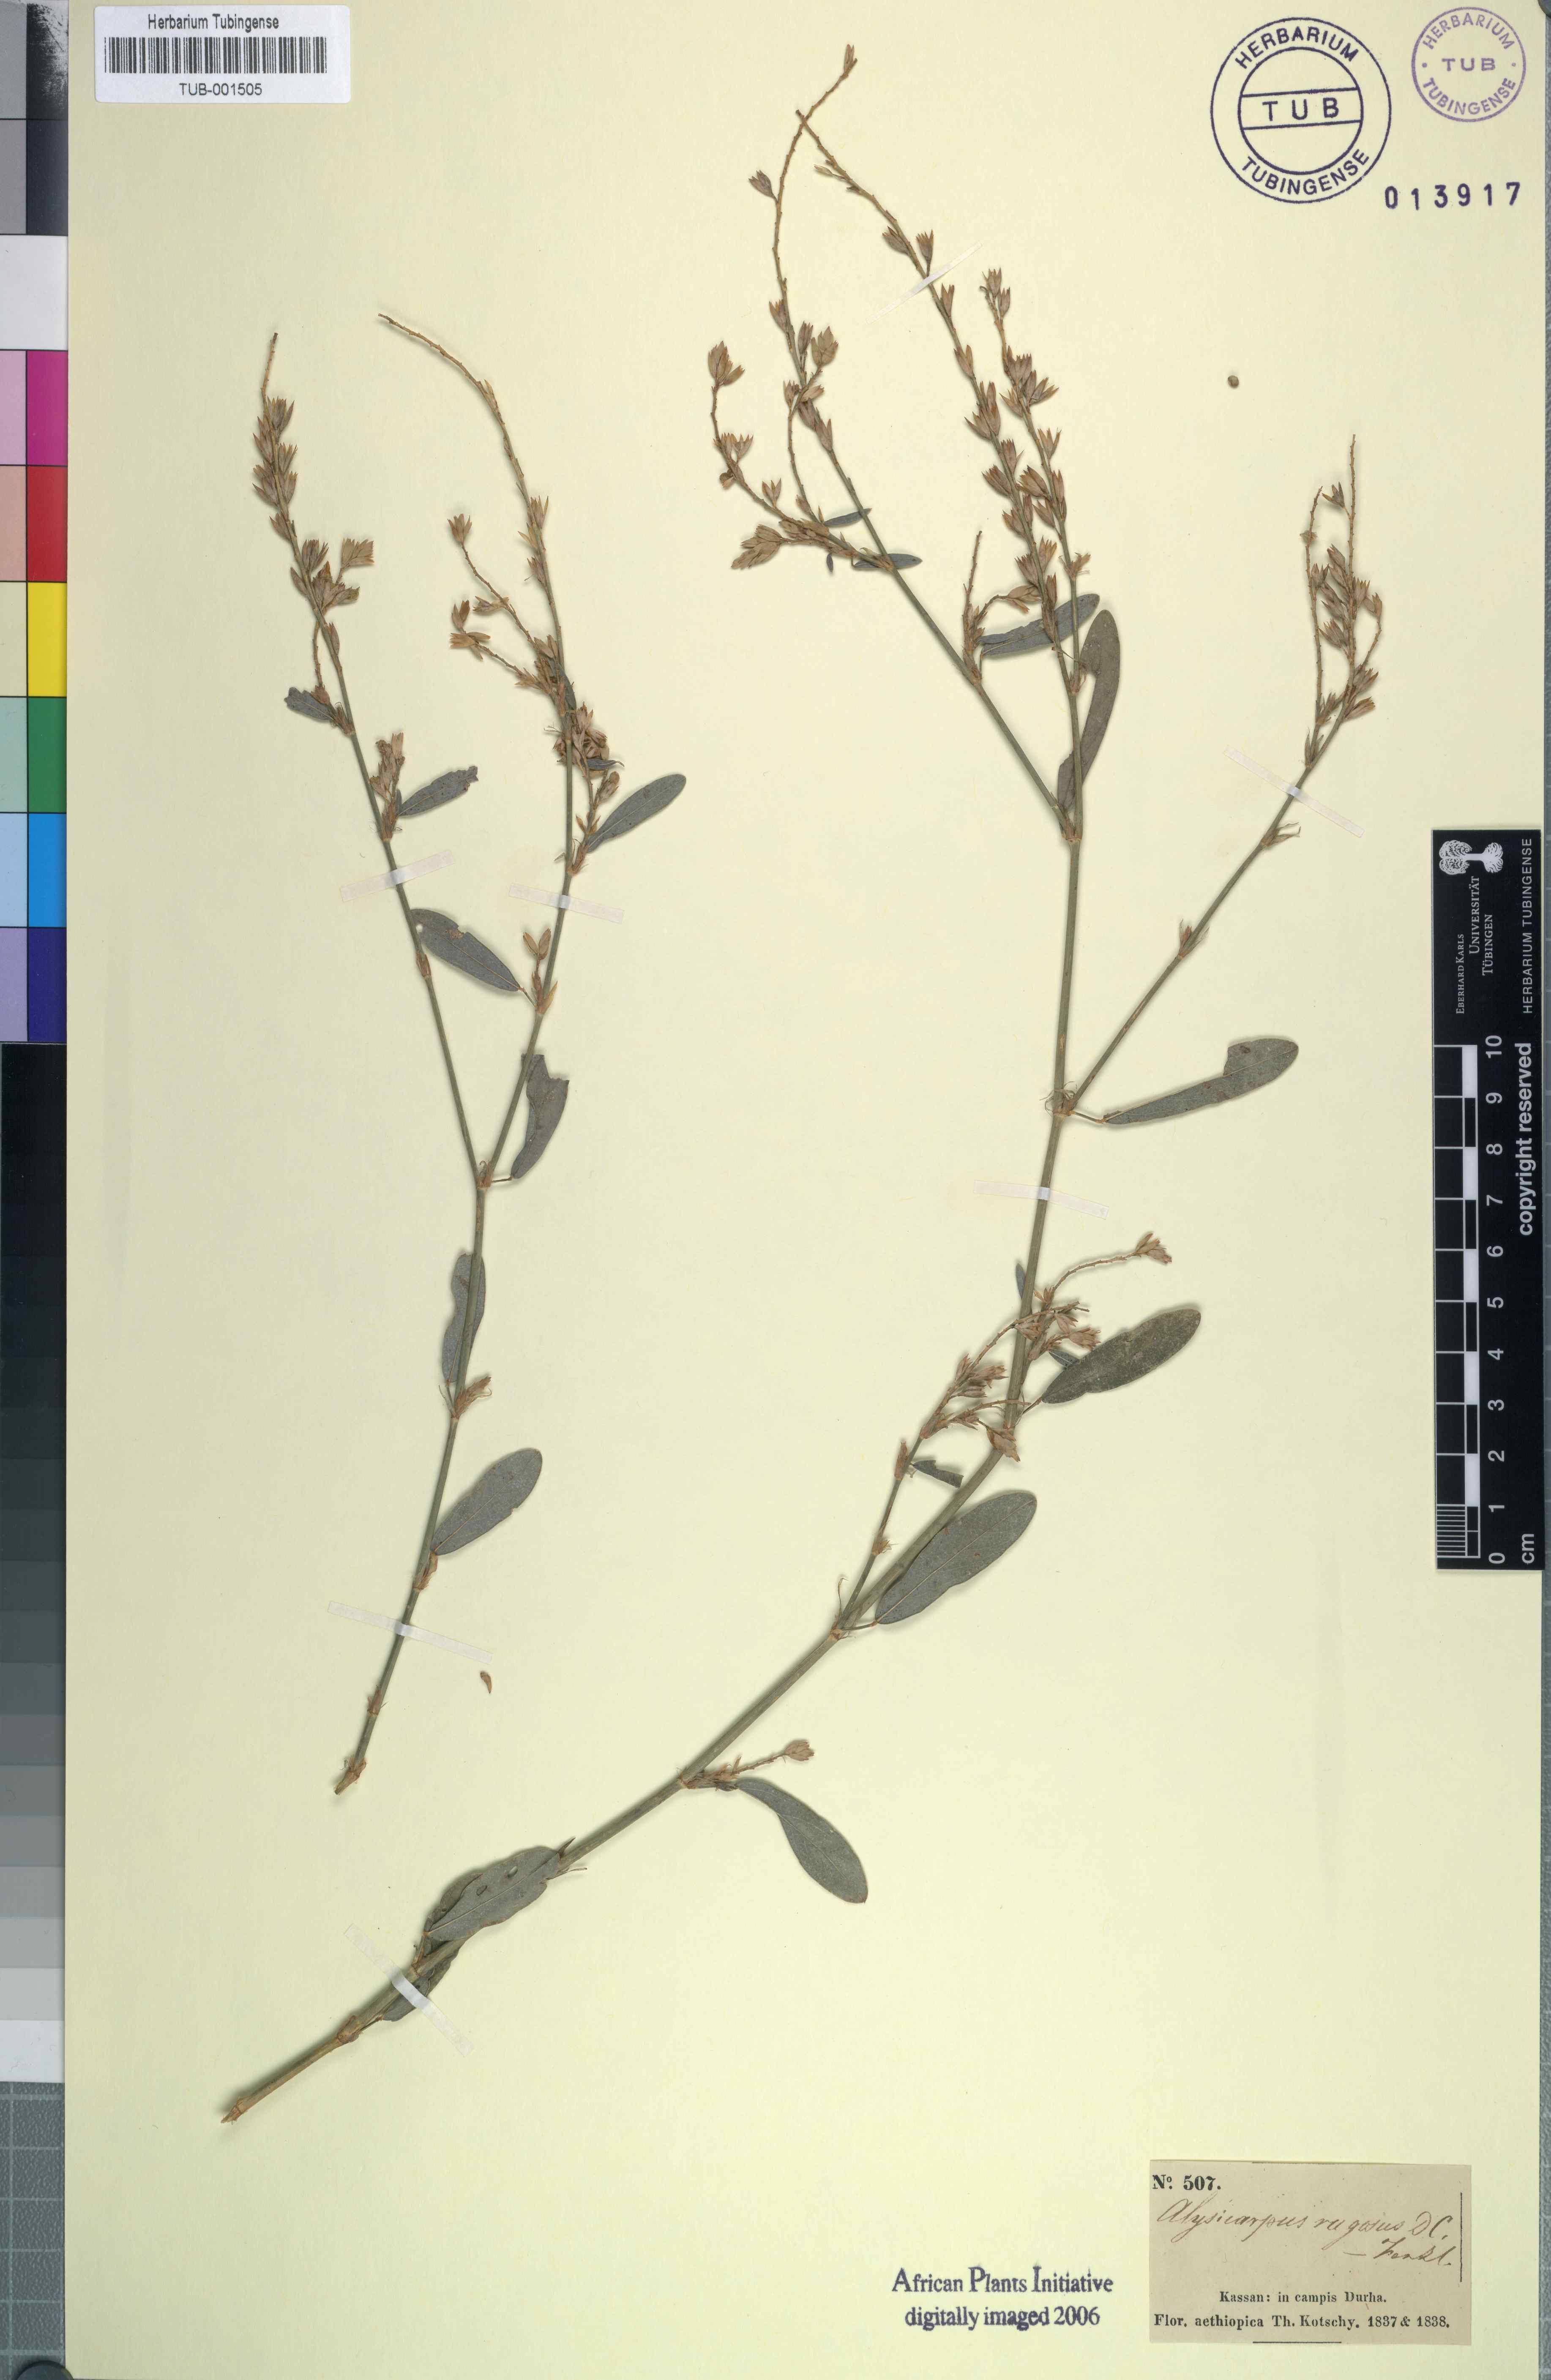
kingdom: Plantae
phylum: Tracheophyta
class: Magnoliopsida
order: Fabales
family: Fabaceae
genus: Alysicarpus
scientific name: Alysicarpus rugosus
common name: Red moneywort
